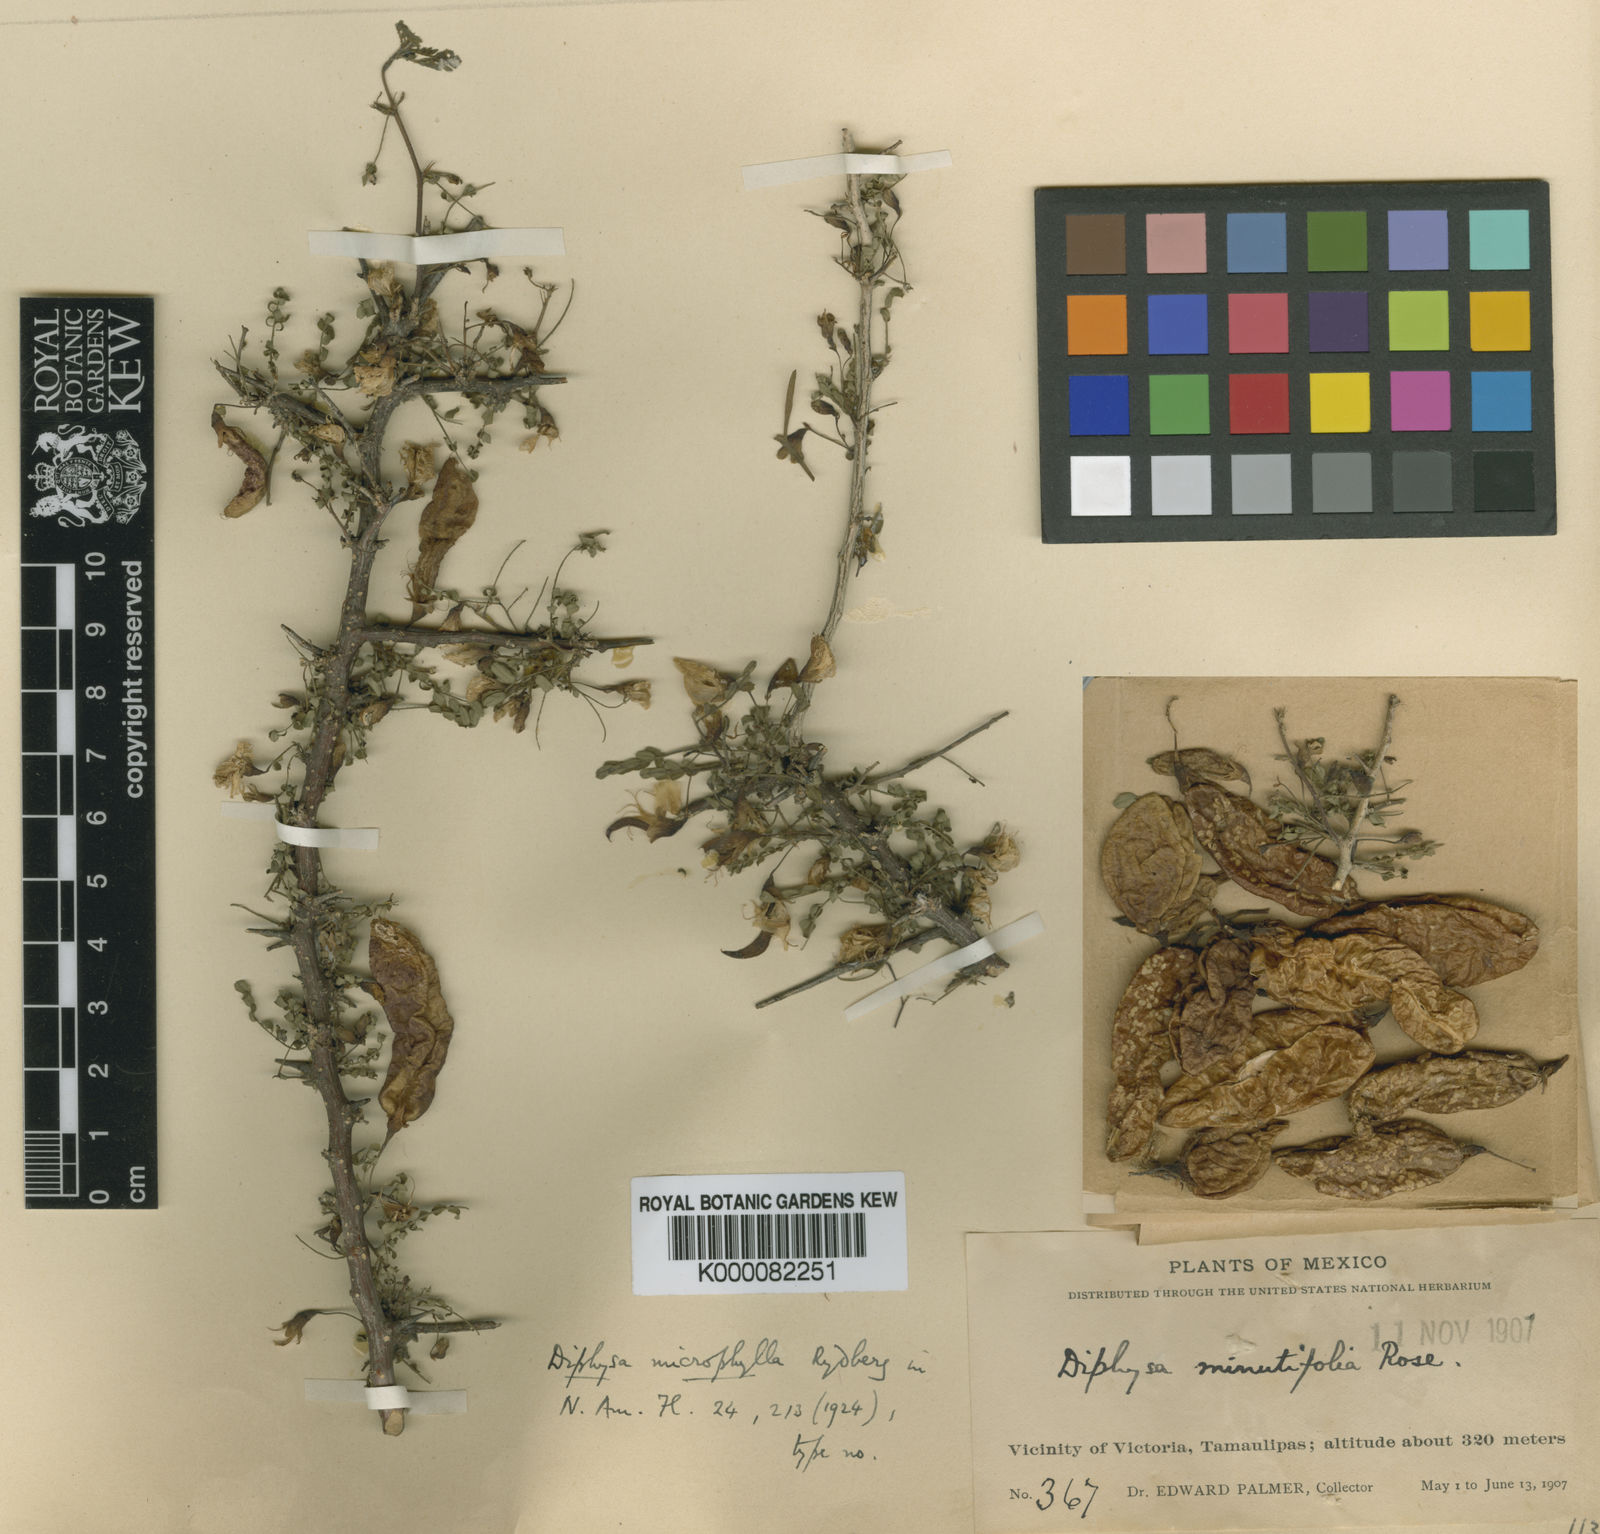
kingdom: Plantae
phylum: Tracheophyta
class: Magnoliopsida
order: Fabales
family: Fabaceae
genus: Diphysa
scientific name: Diphysa microphylla
